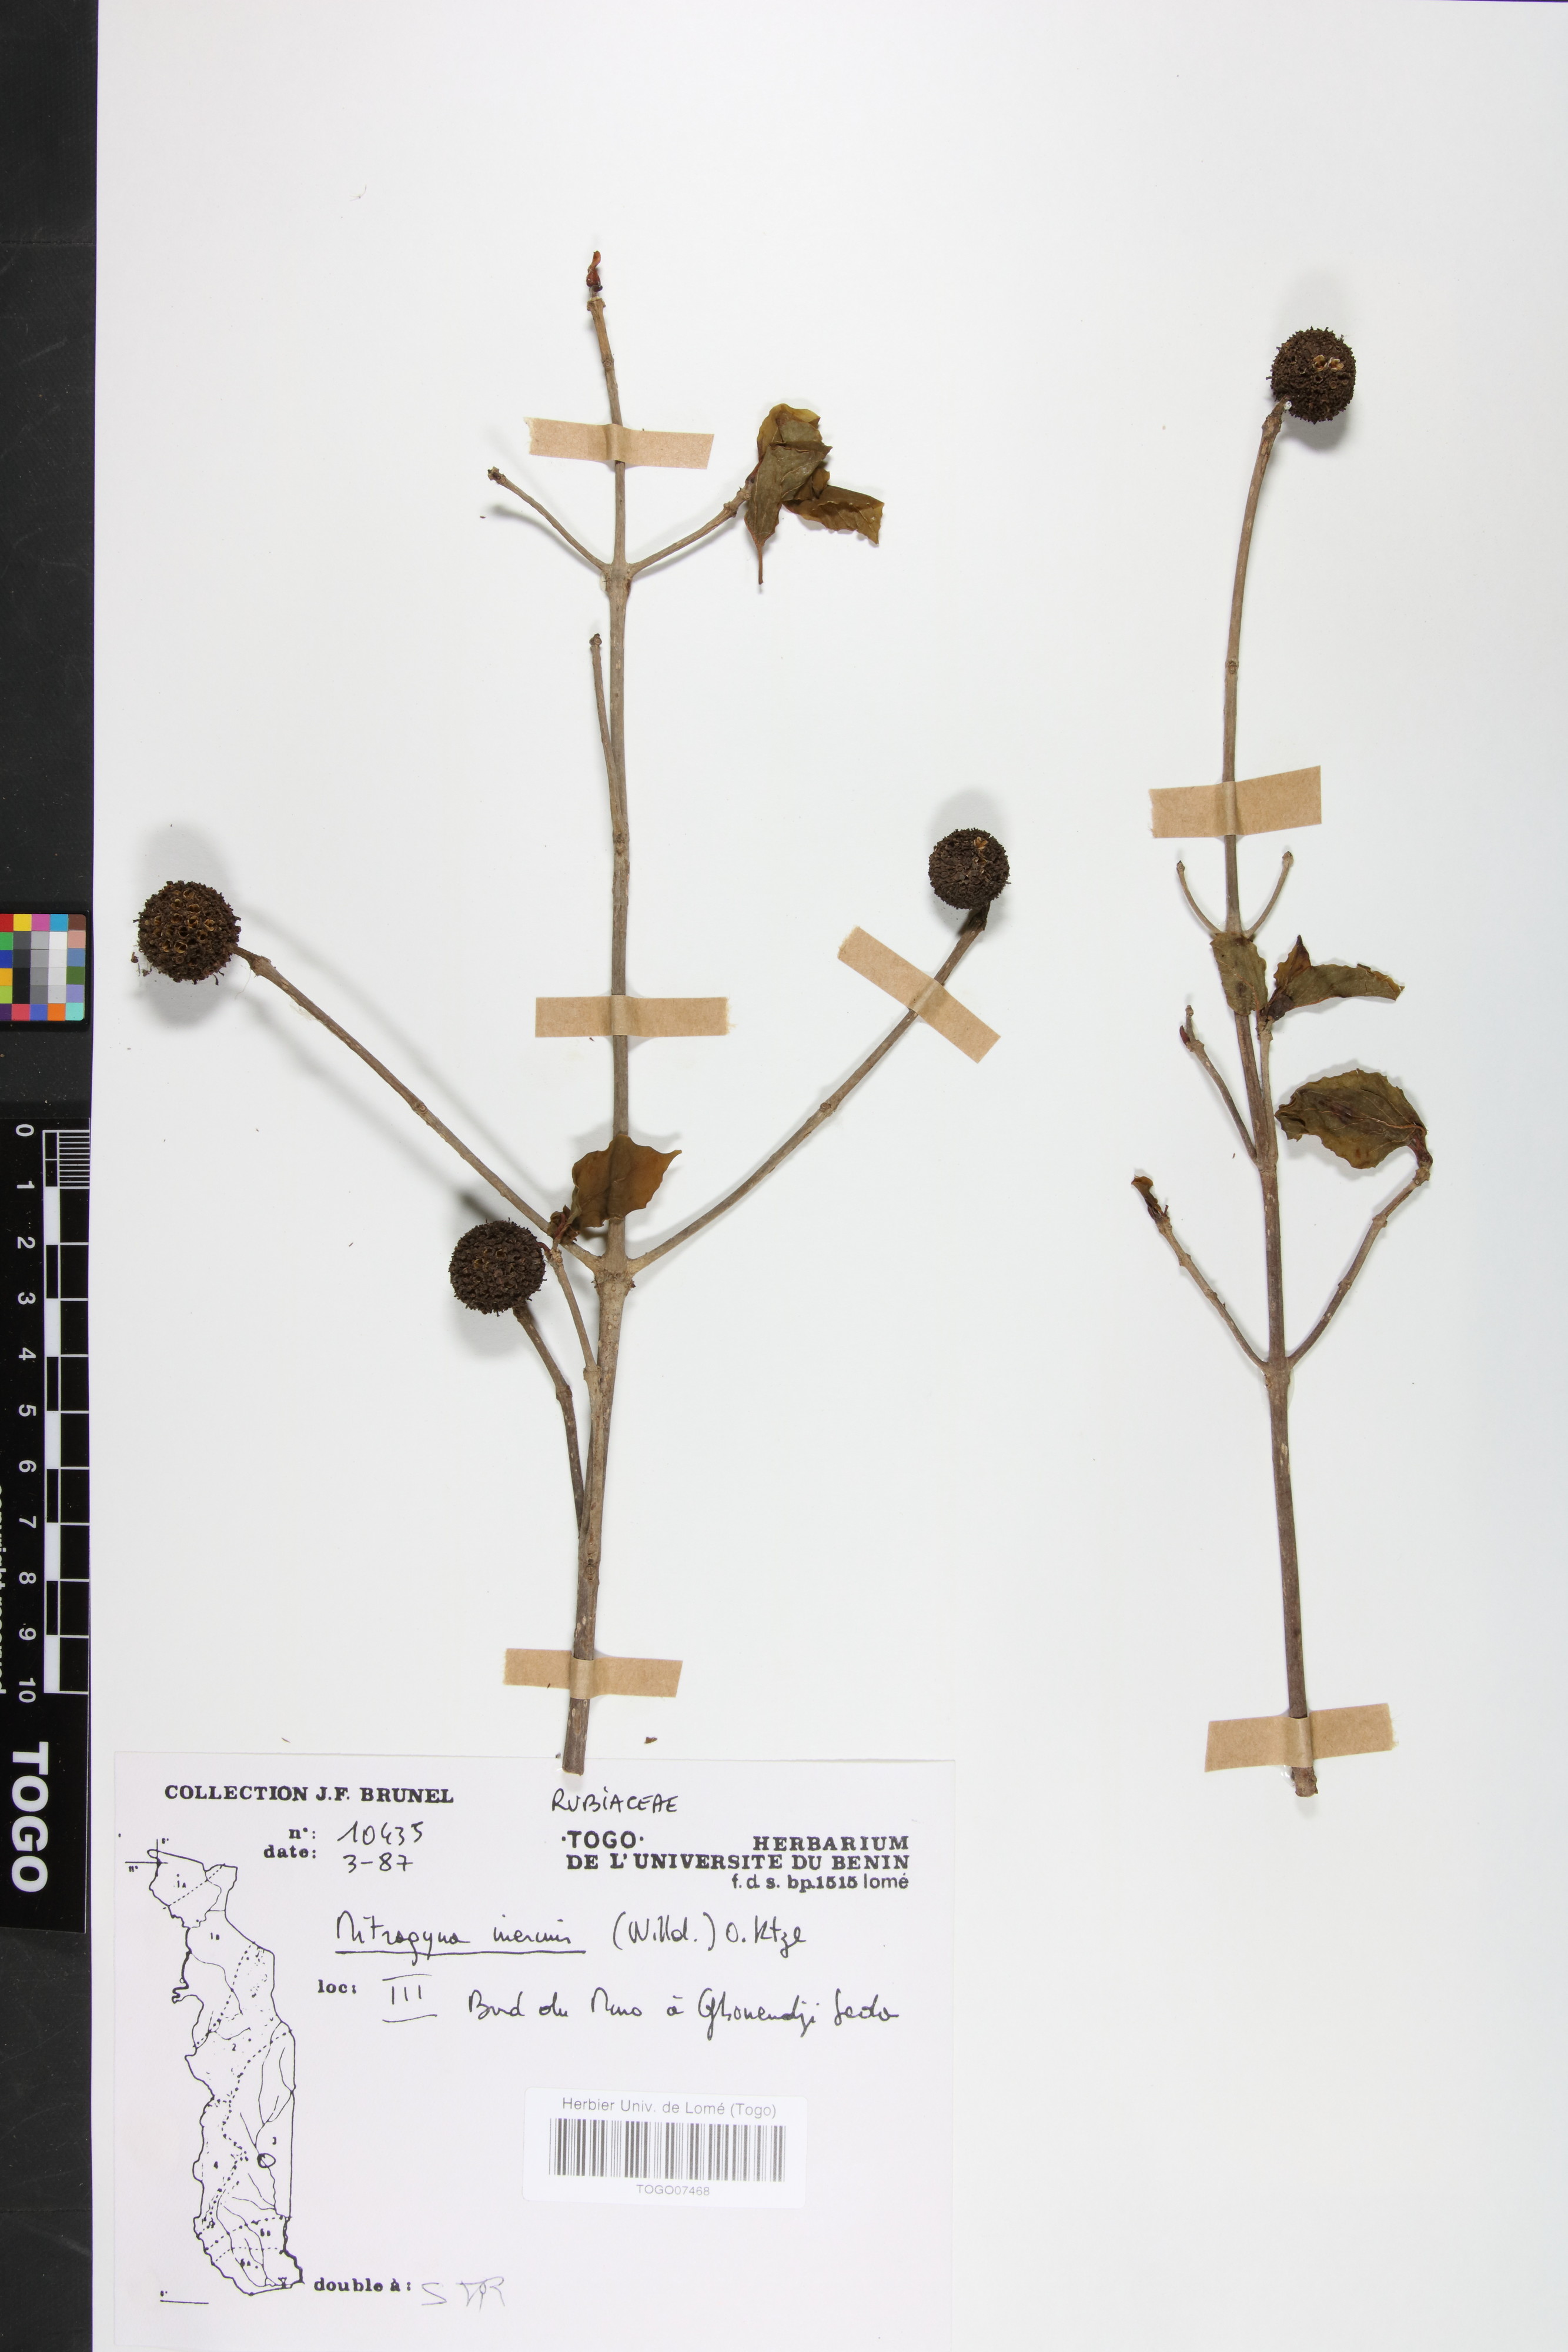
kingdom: Plantae
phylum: Tracheophyta
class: Magnoliopsida
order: Gentianales
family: Rubiaceae
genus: Mitragyna
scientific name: Mitragyna inermis
